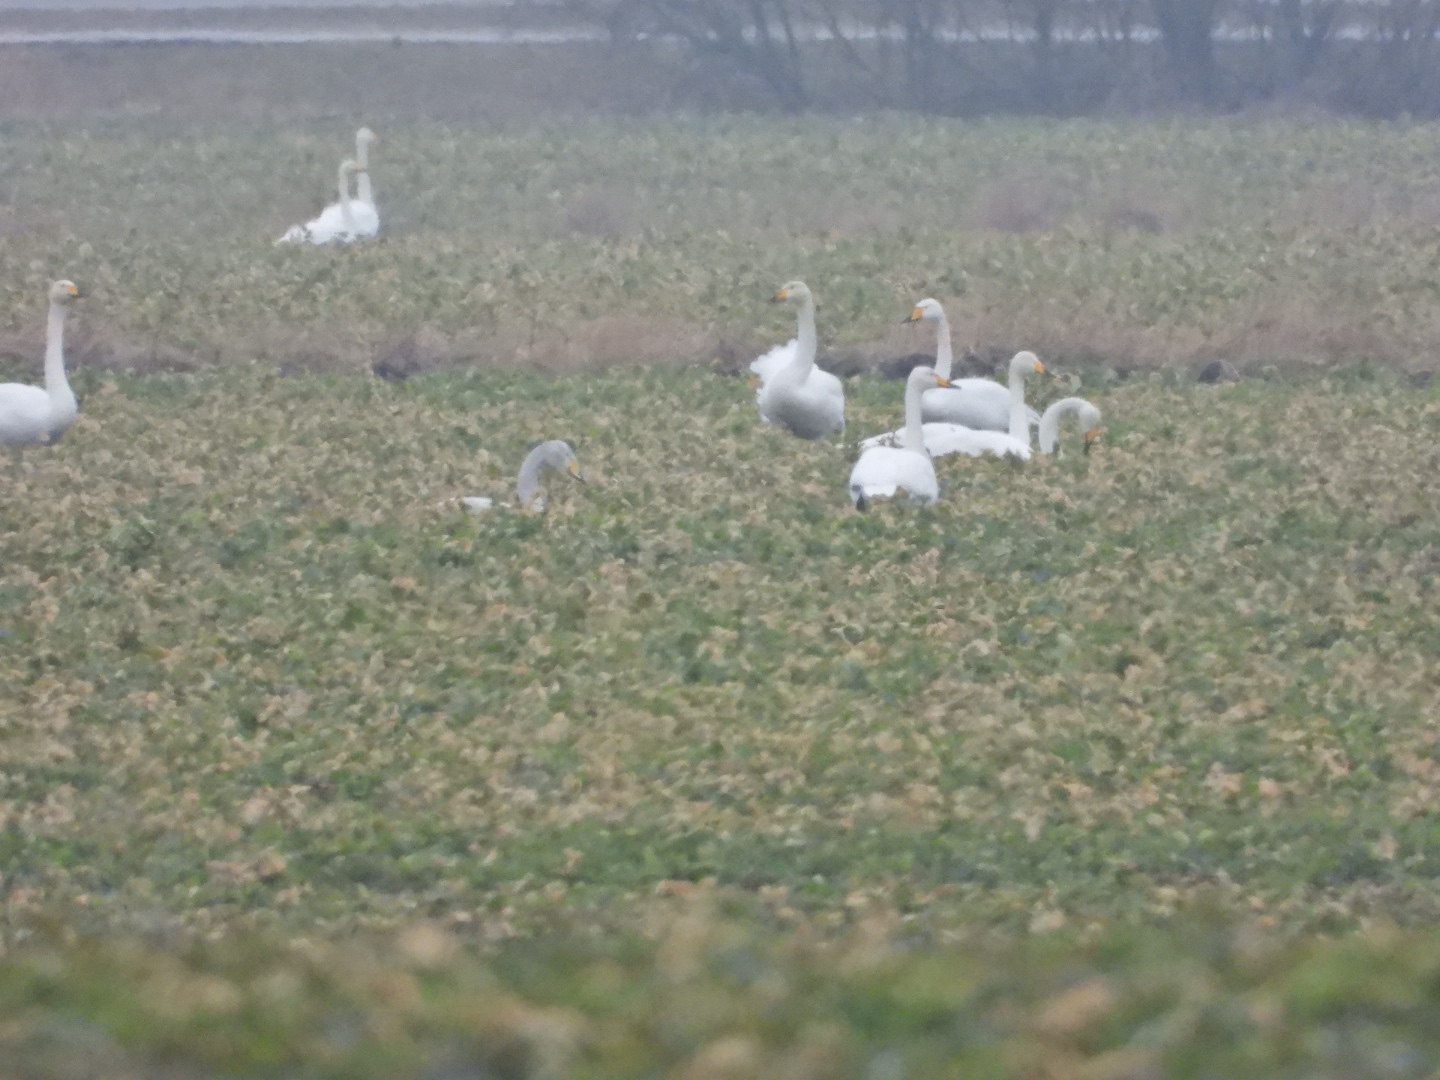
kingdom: Animalia
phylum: Chordata
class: Aves
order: Anseriformes
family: Anatidae
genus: Cygnus
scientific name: Cygnus cygnus
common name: Sangsvane
